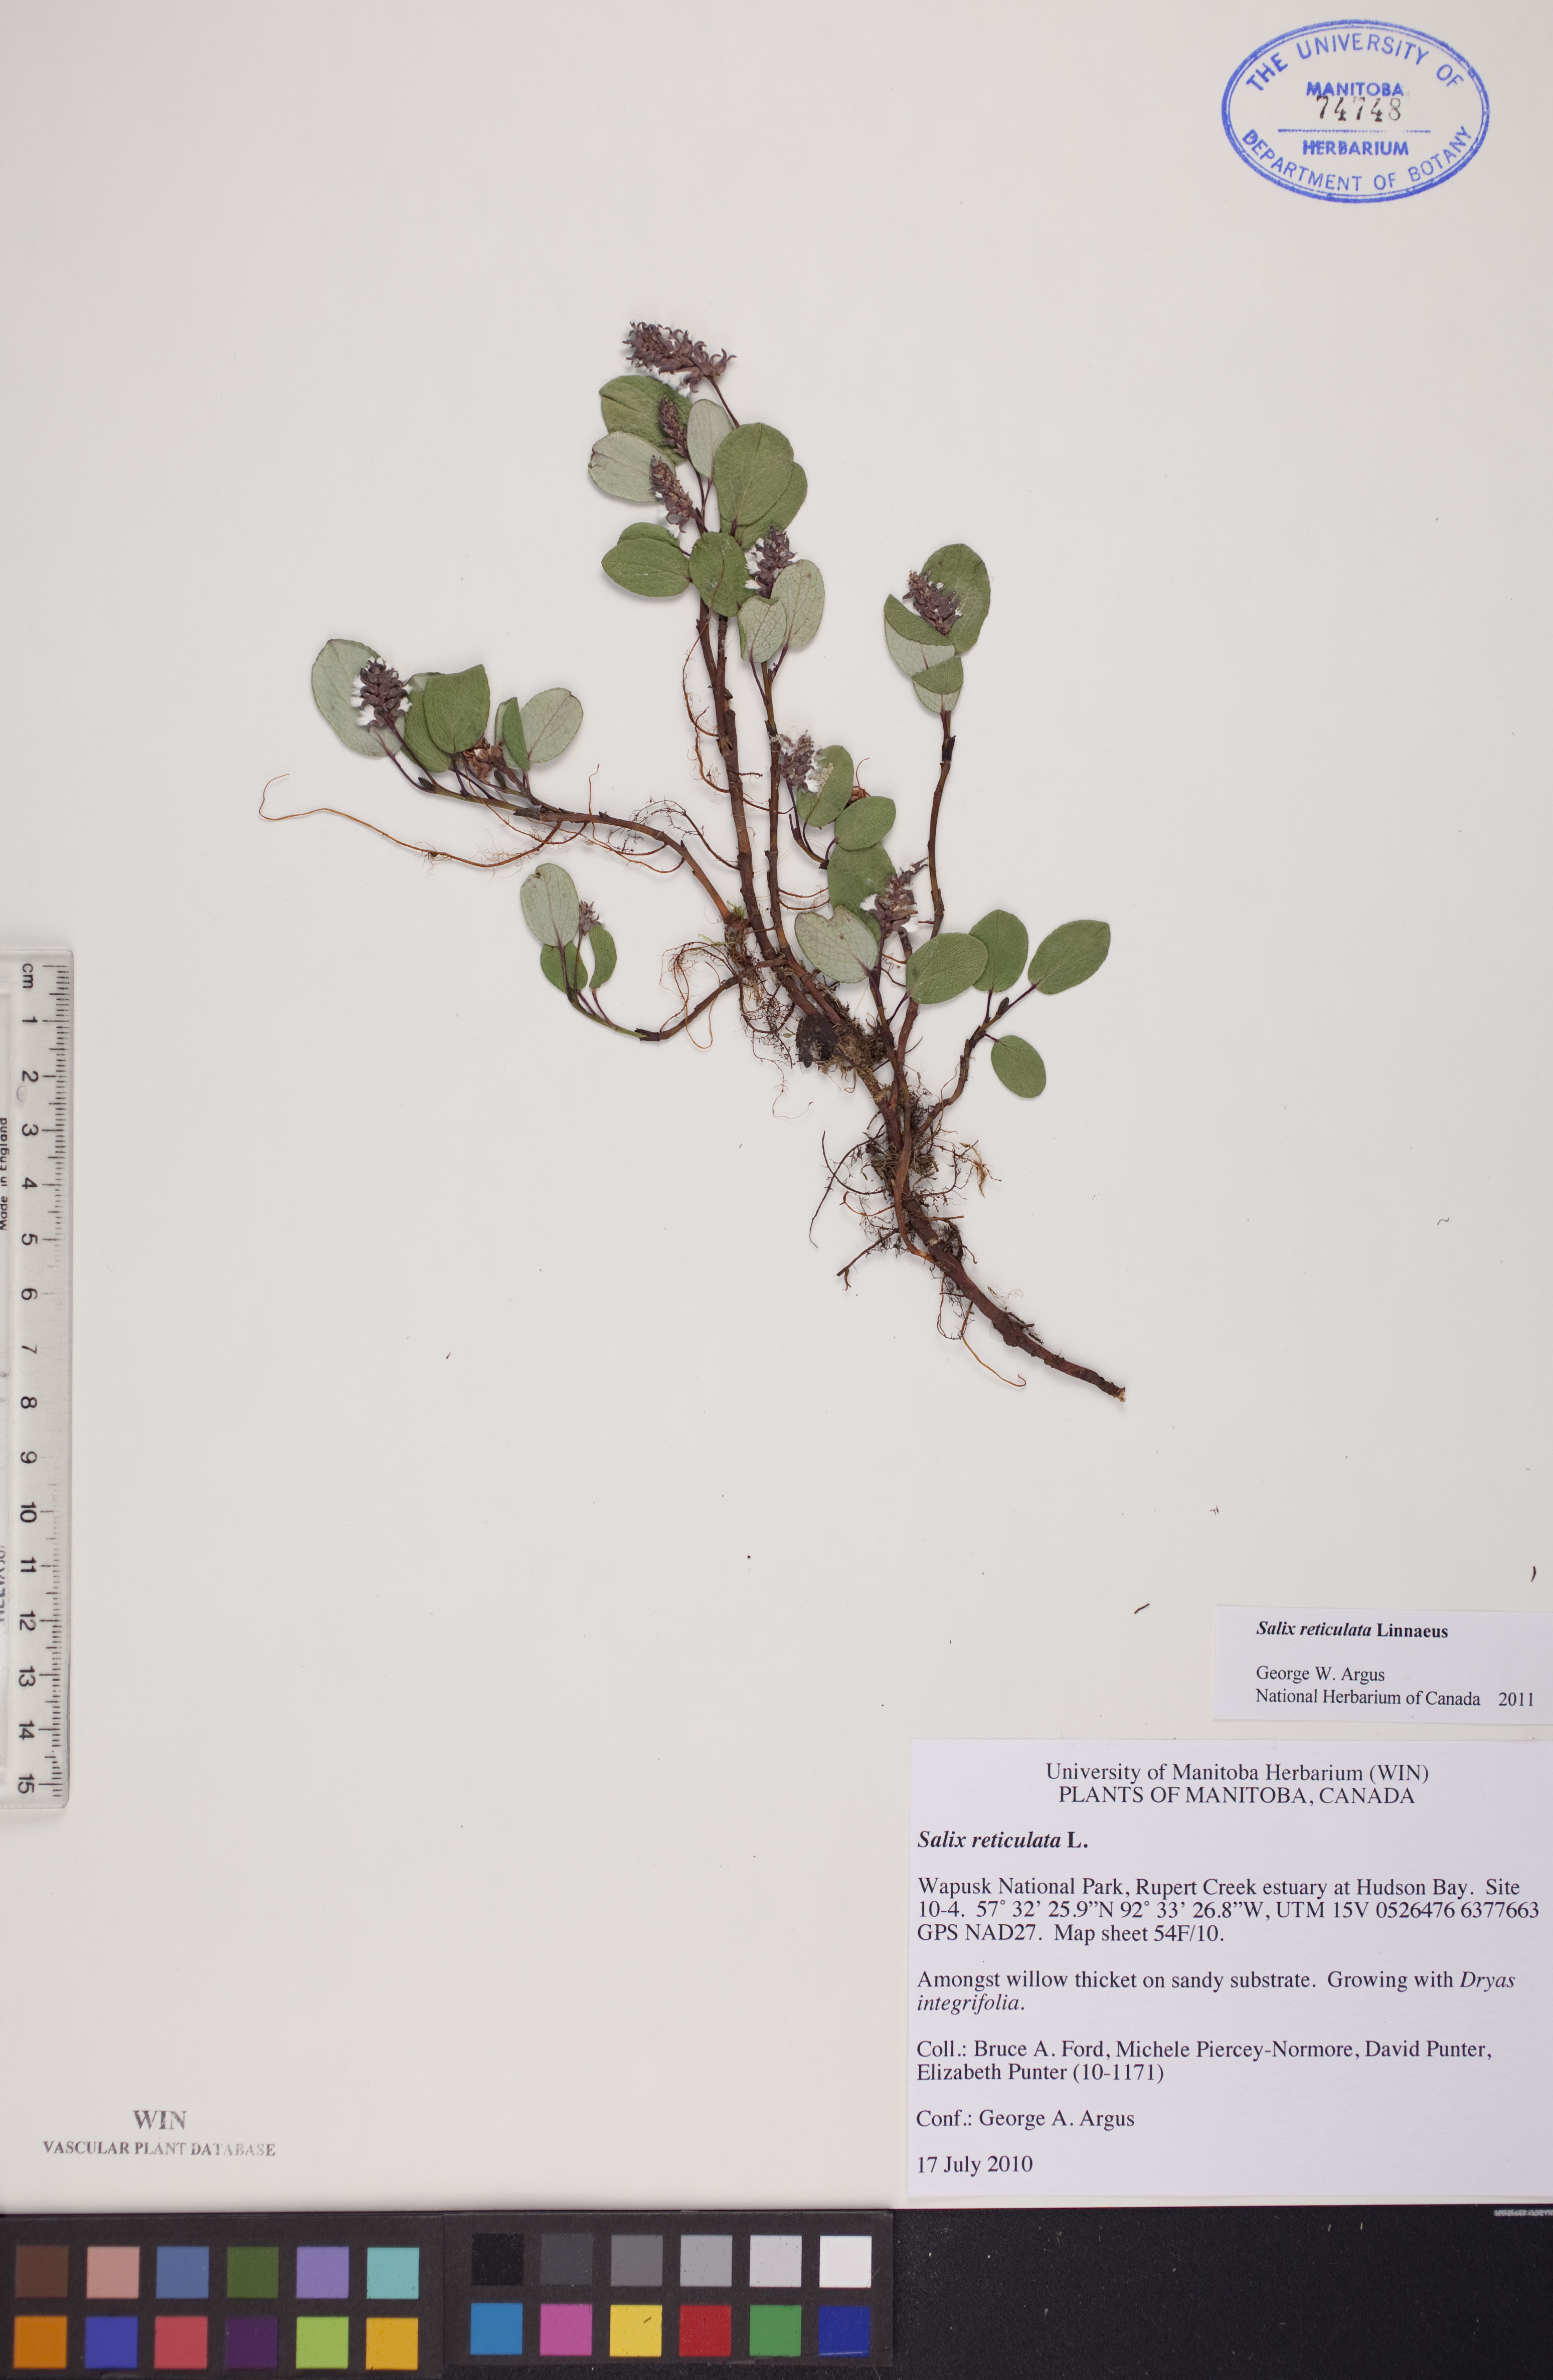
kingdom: Plantae
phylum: Tracheophyta
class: Magnoliopsida
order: Malpighiales
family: Salicaceae
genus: Salix
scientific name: Salix reticulata
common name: Net-leaved willow
